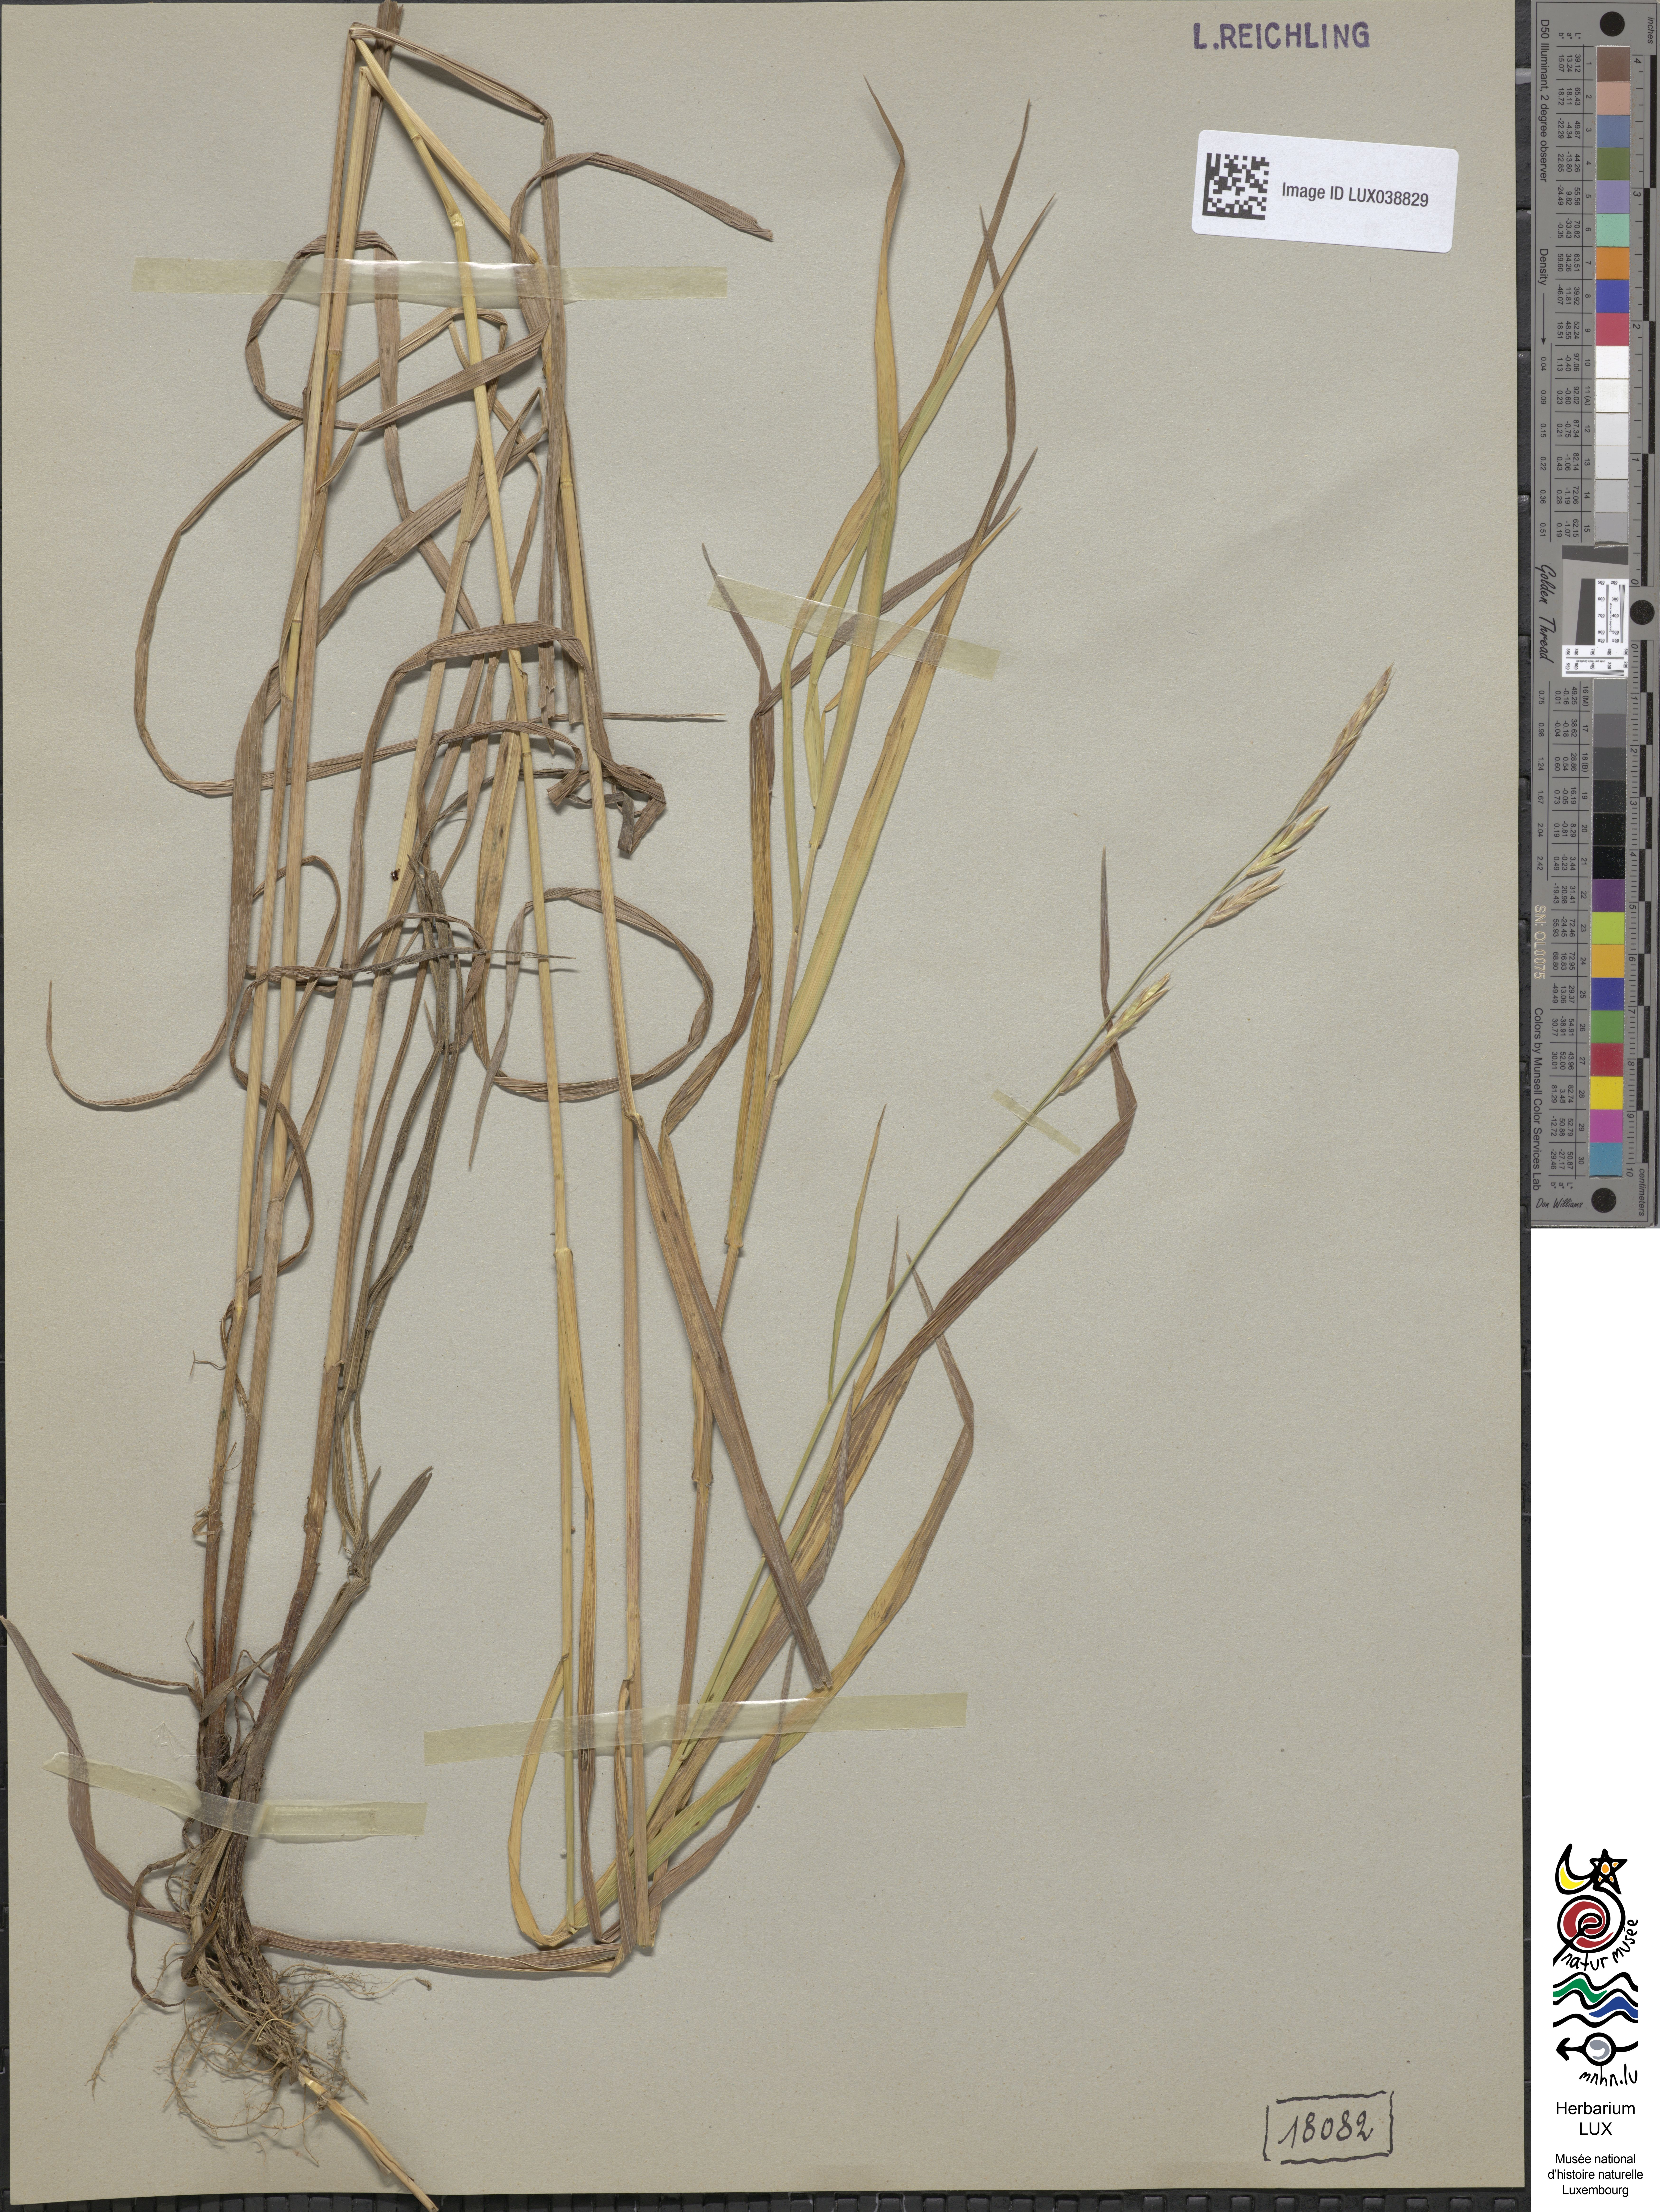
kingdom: Plantae
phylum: Tracheophyta
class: Liliopsida
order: Poales
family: Poaceae
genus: Bromus
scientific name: Bromus inermis
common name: Smooth brome
